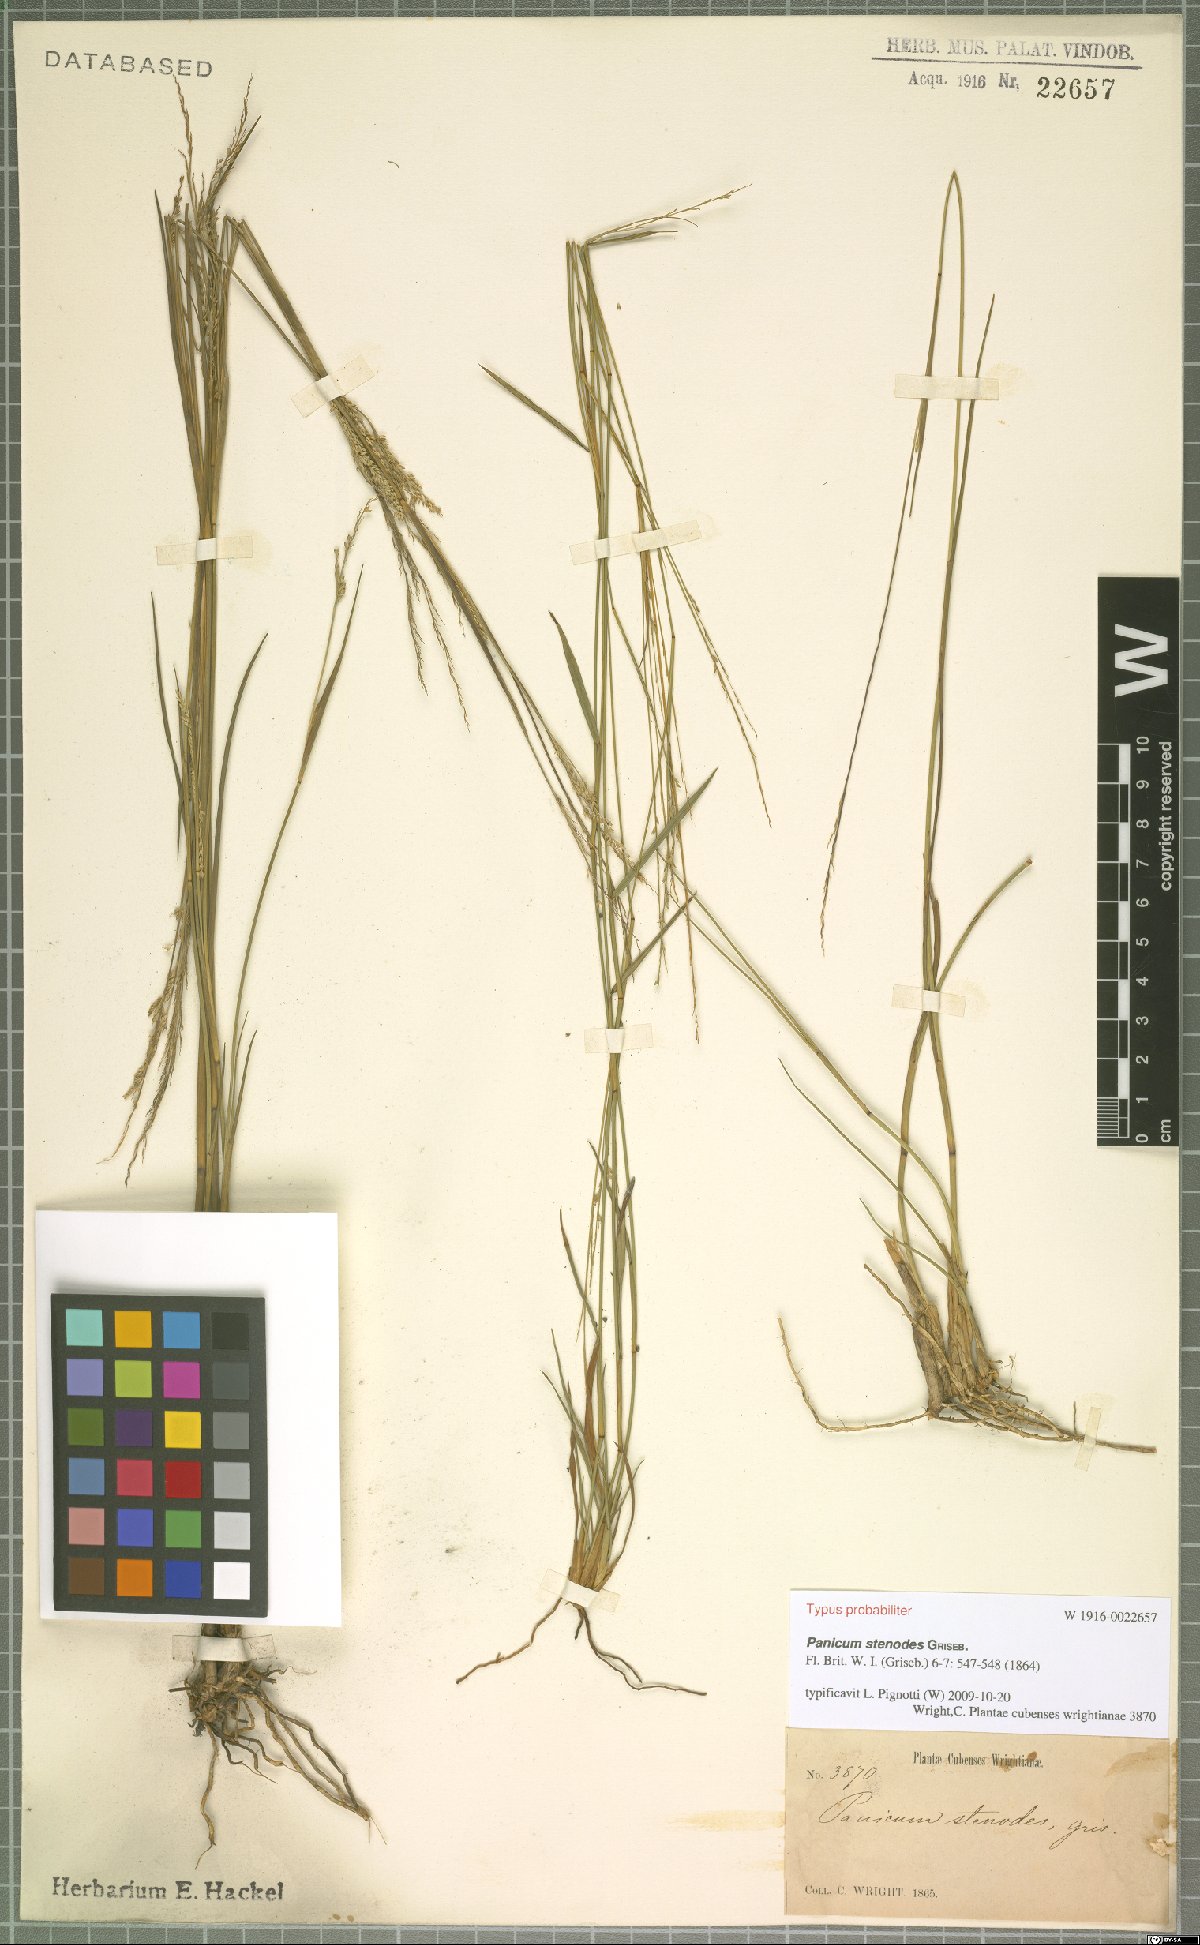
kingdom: Plantae
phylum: Tracheophyta
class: Liliopsida
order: Poales
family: Poaceae
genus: Coleataenia
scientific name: Coleataenia stenodes
